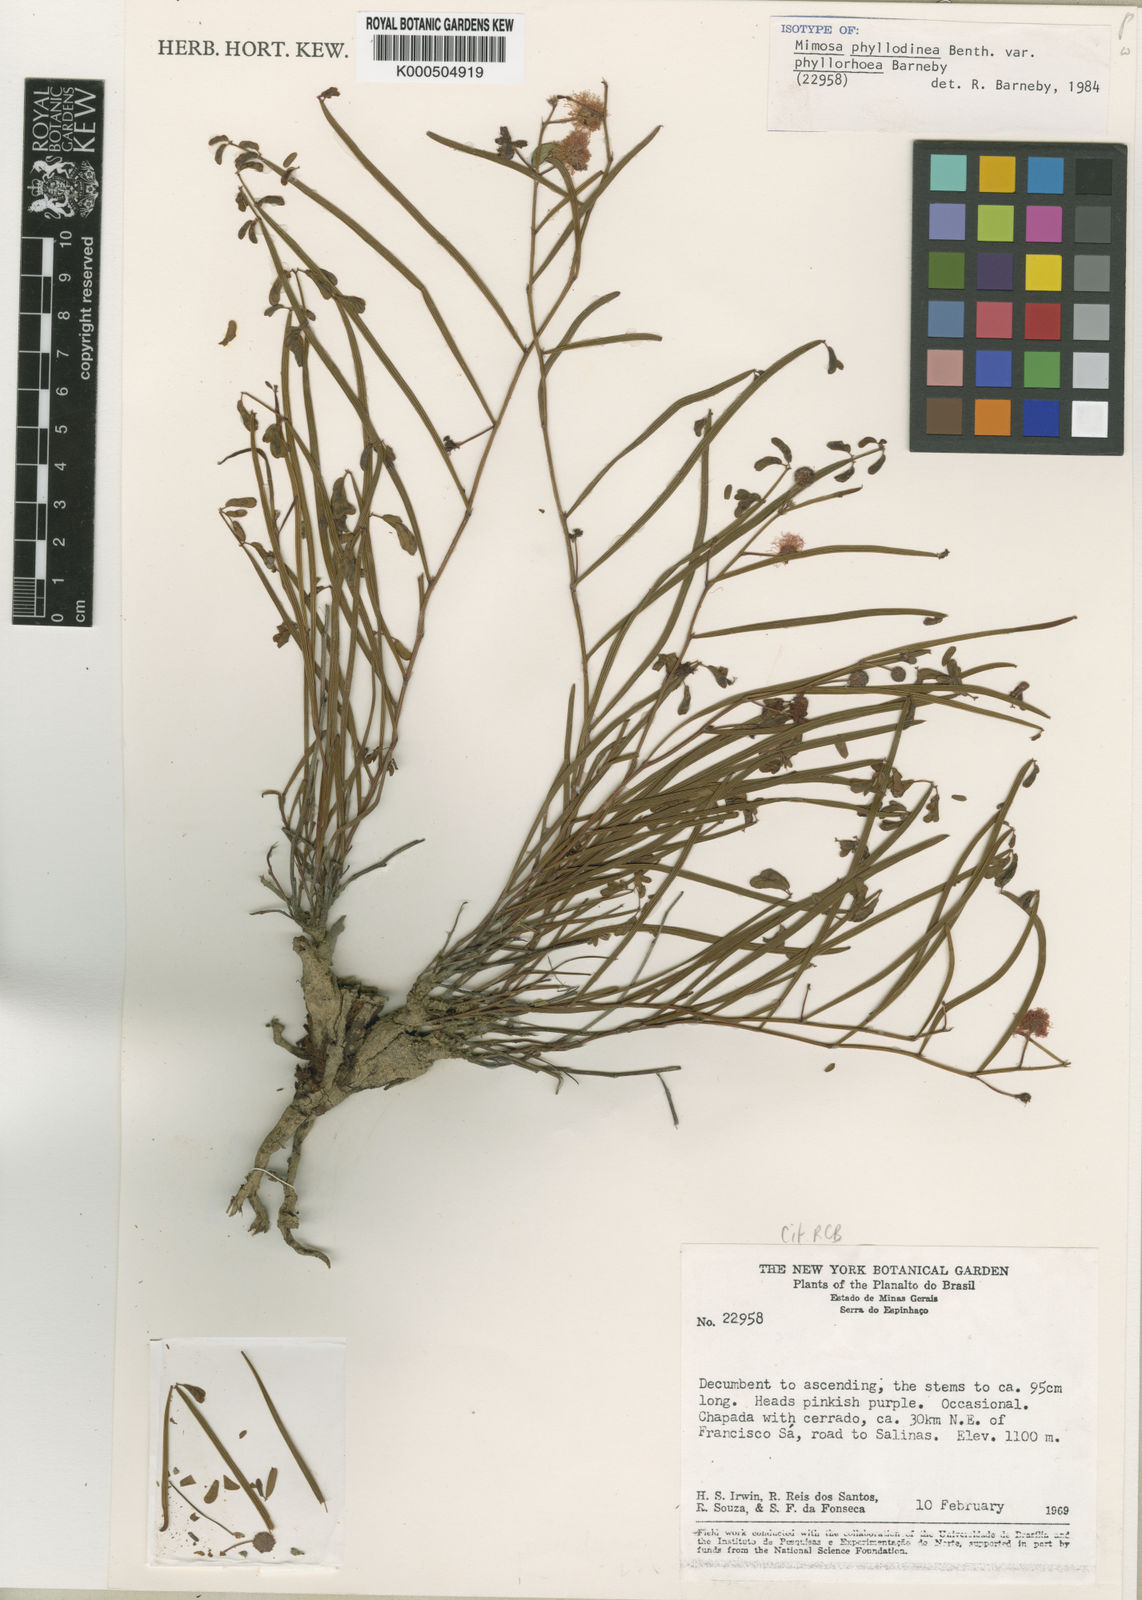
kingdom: Plantae
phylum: Tracheophyta
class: Magnoliopsida
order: Fabales
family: Fabaceae
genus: Mimosa
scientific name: Mimosa phyllodinea
